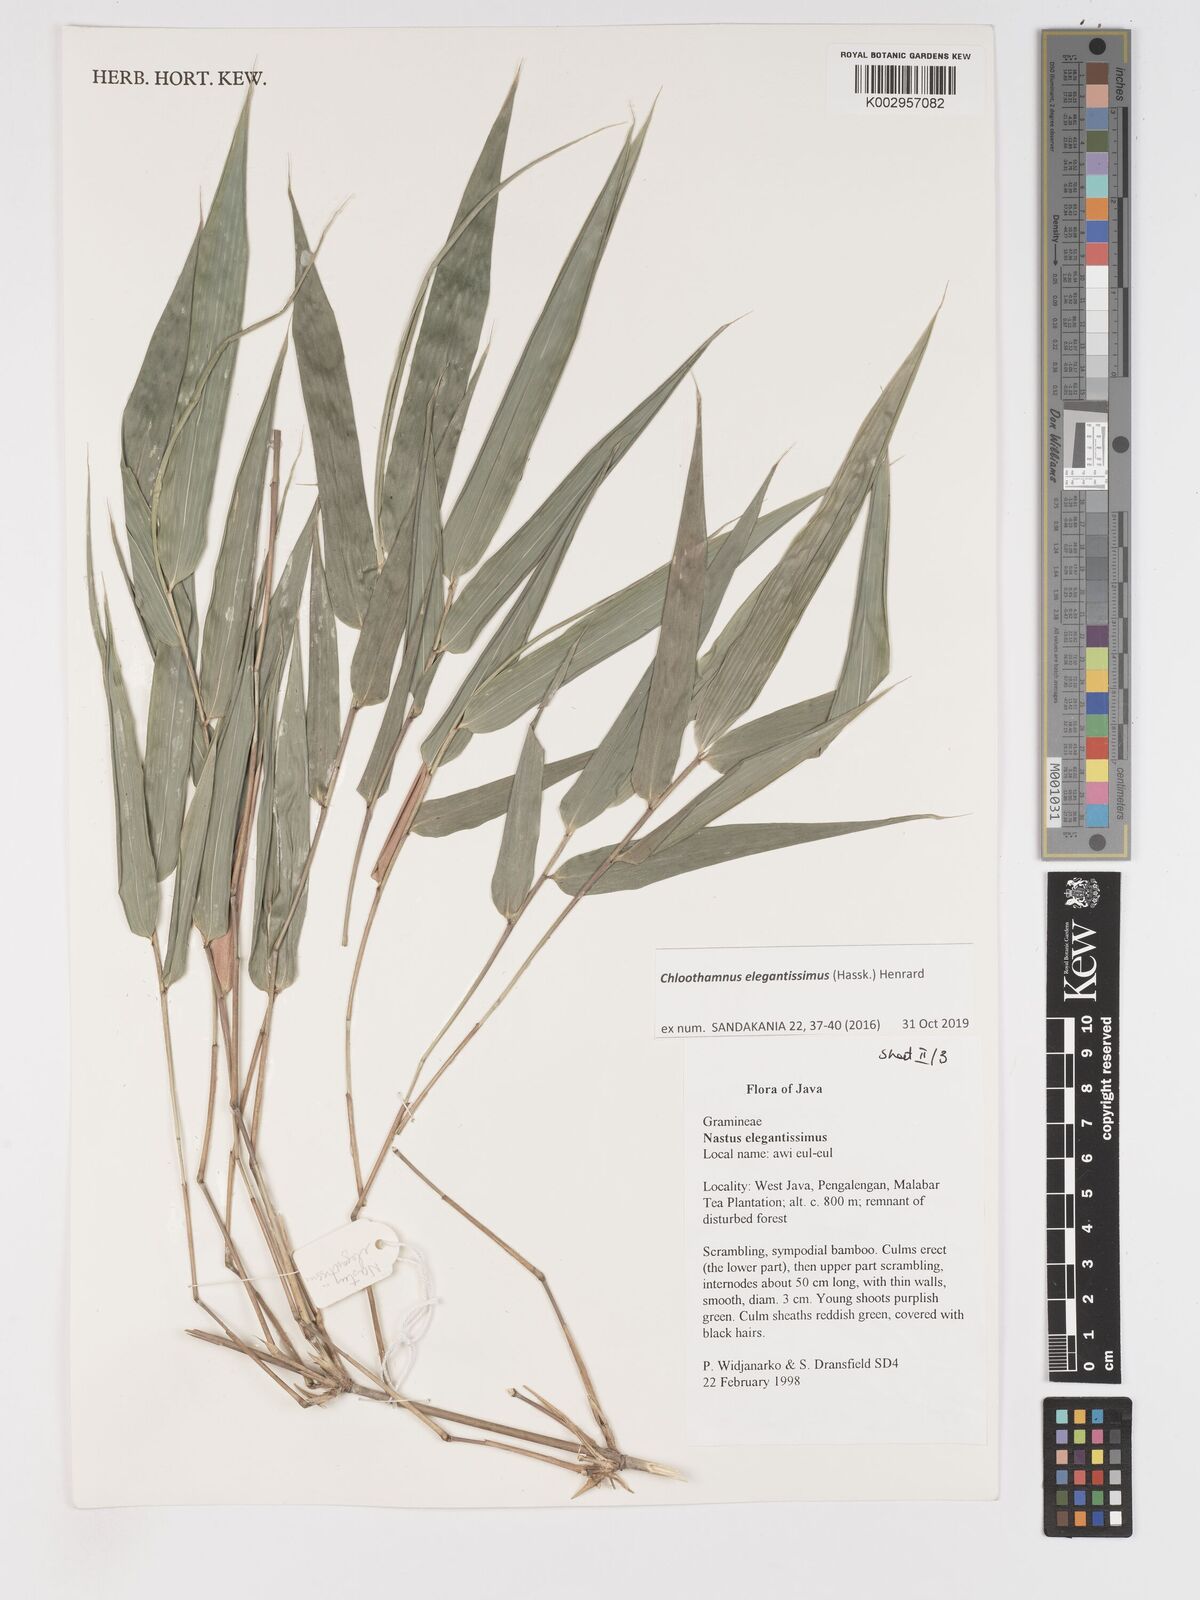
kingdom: Plantae
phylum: Tracheophyta
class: Liliopsida
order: Poales
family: Poaceae
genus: Chloothamnus
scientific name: Chloothamnus elegantissimus
